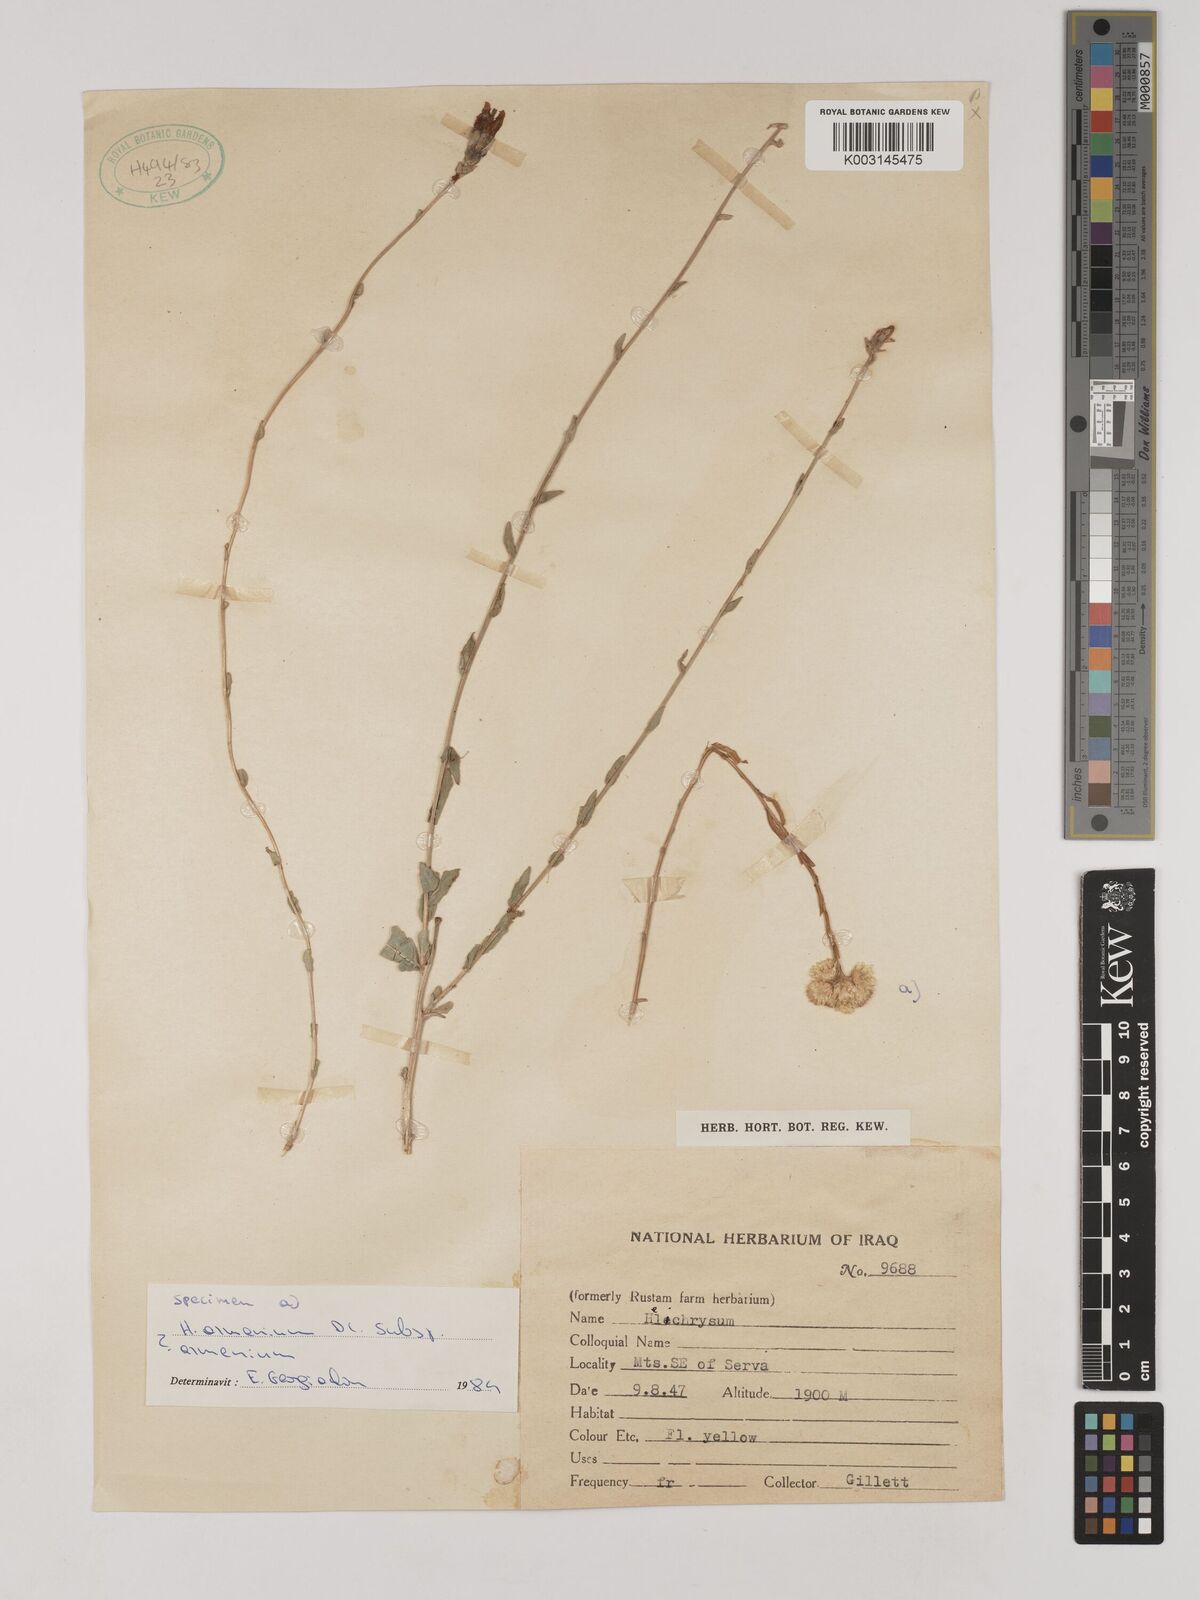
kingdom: Plantae
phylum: Tracheophyta
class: Magnoliopsida
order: Asterales
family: Asteraceae
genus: Helichrysum
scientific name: Helichrysum armenium
